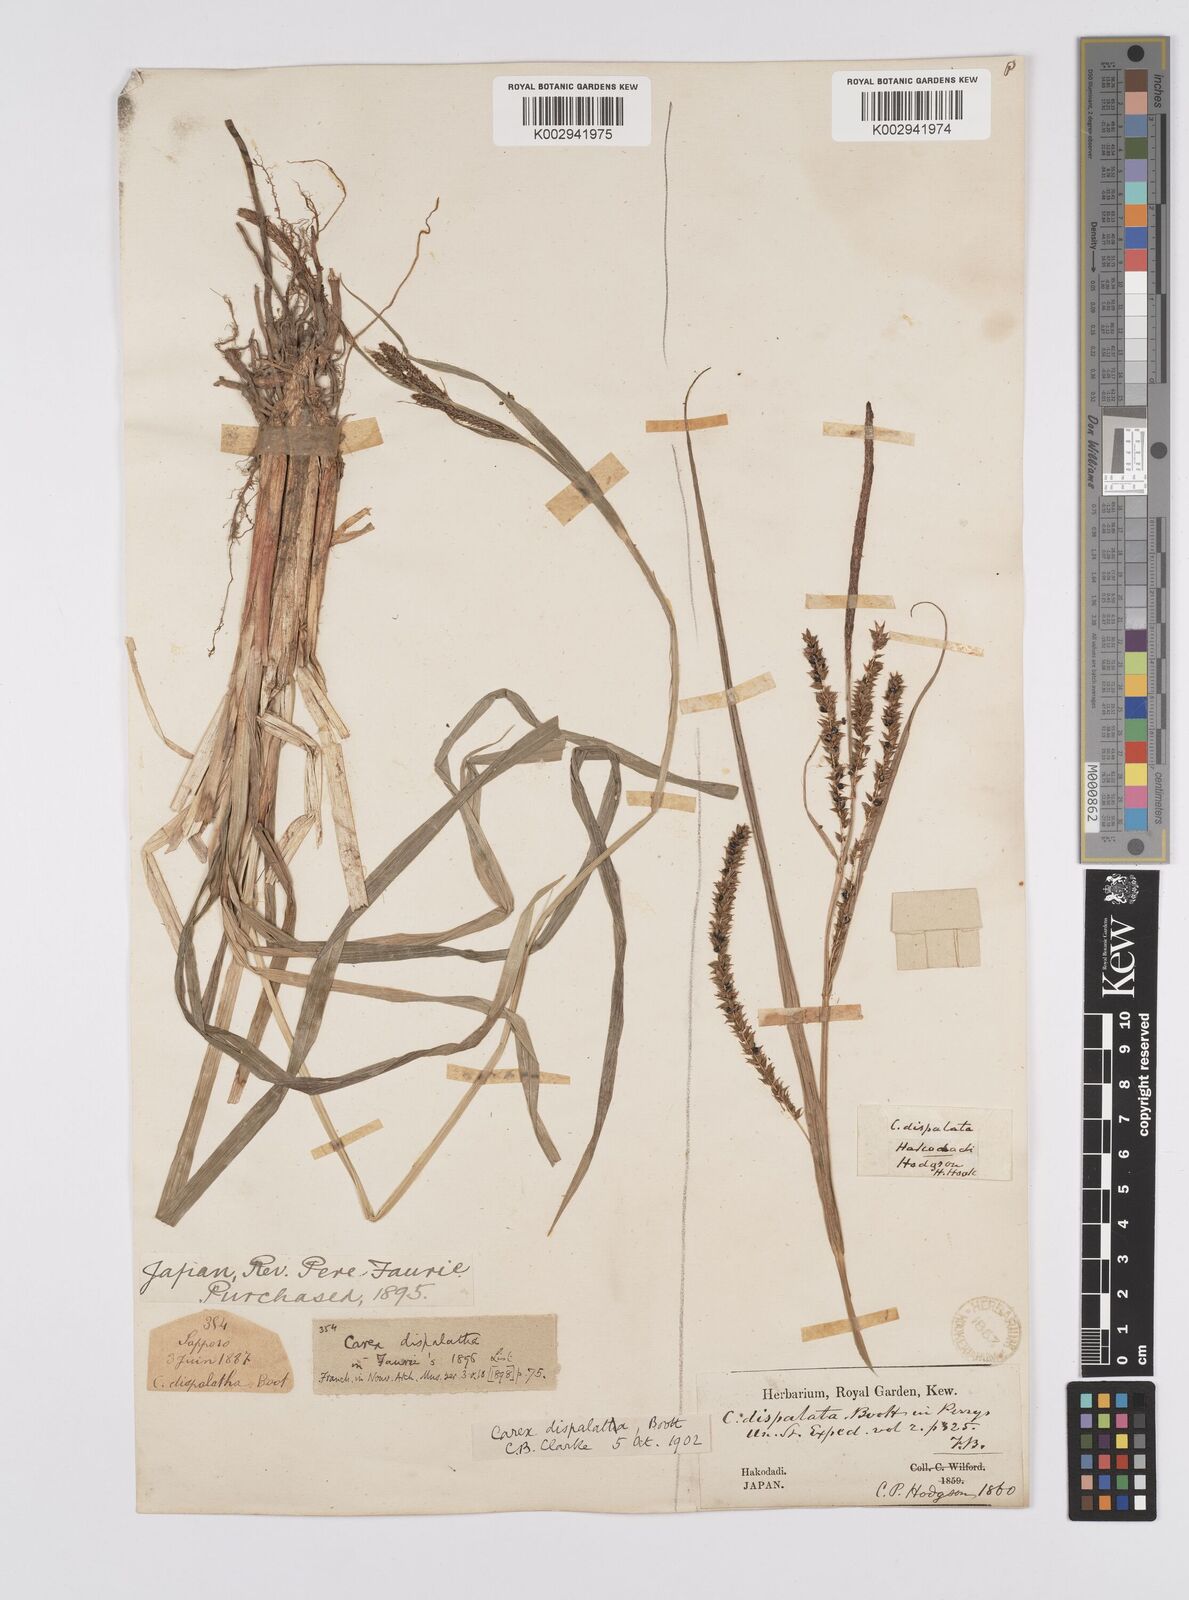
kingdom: Plantae
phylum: Tracheophyta
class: Liliopsida
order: Poales
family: Cyperaceae
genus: Carex
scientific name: Carex dispalata
